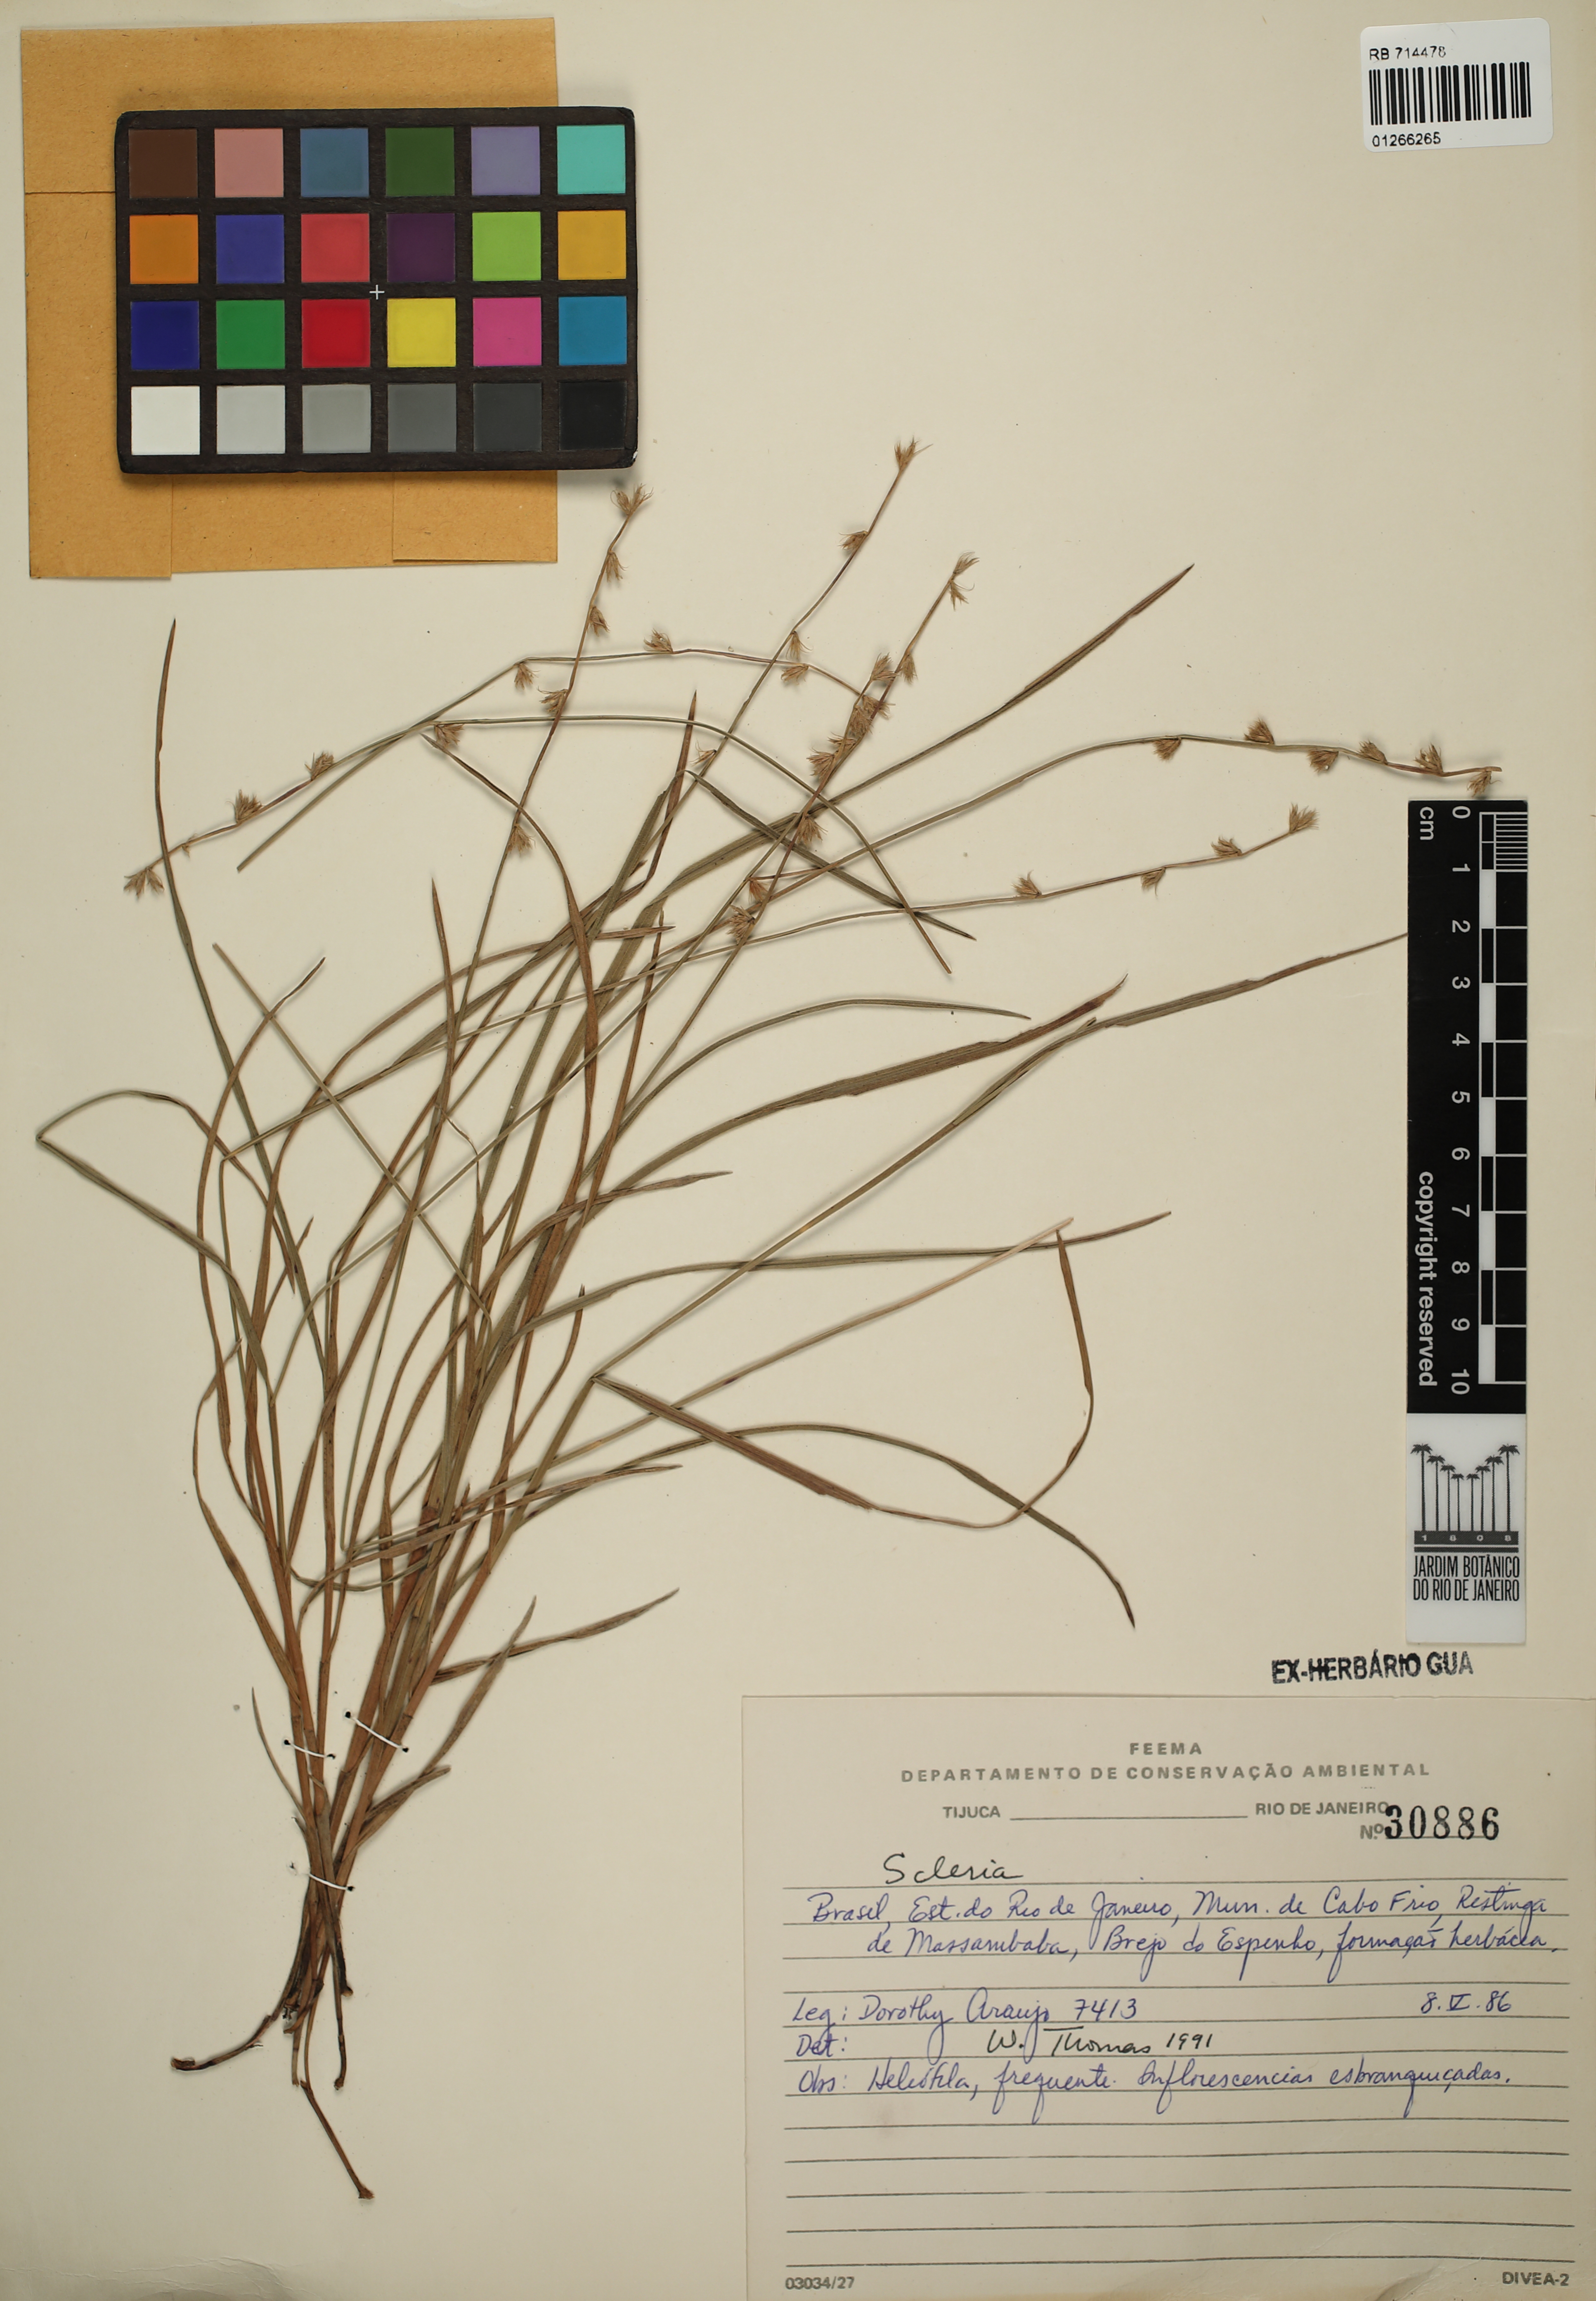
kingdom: Plantae
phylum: Tracheophyta
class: Liliopsida
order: Poales
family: Cyperaceae
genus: Scleria
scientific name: Scleria
